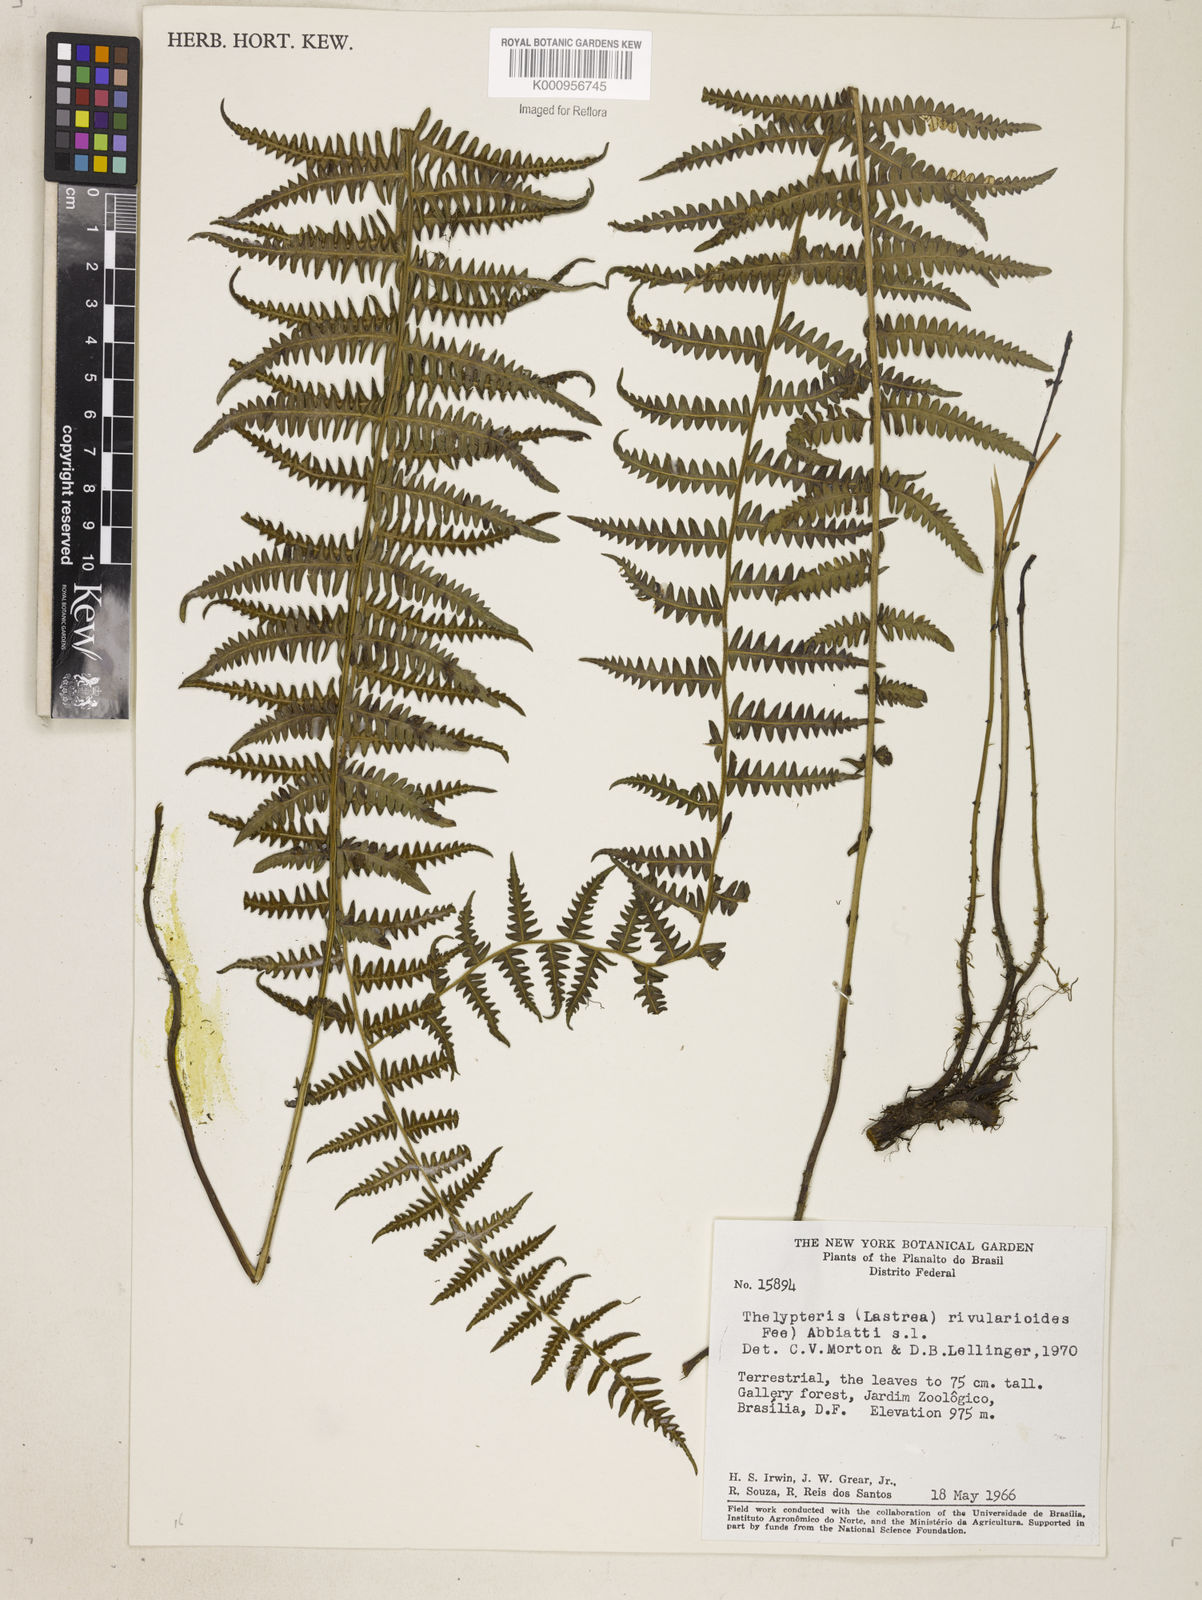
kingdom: Plantae
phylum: Tracheophyta
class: Polypodiopsida
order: Polypodiales
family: Thelypteridaceae
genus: Amauropelta
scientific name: Amauropelta rivularioides
